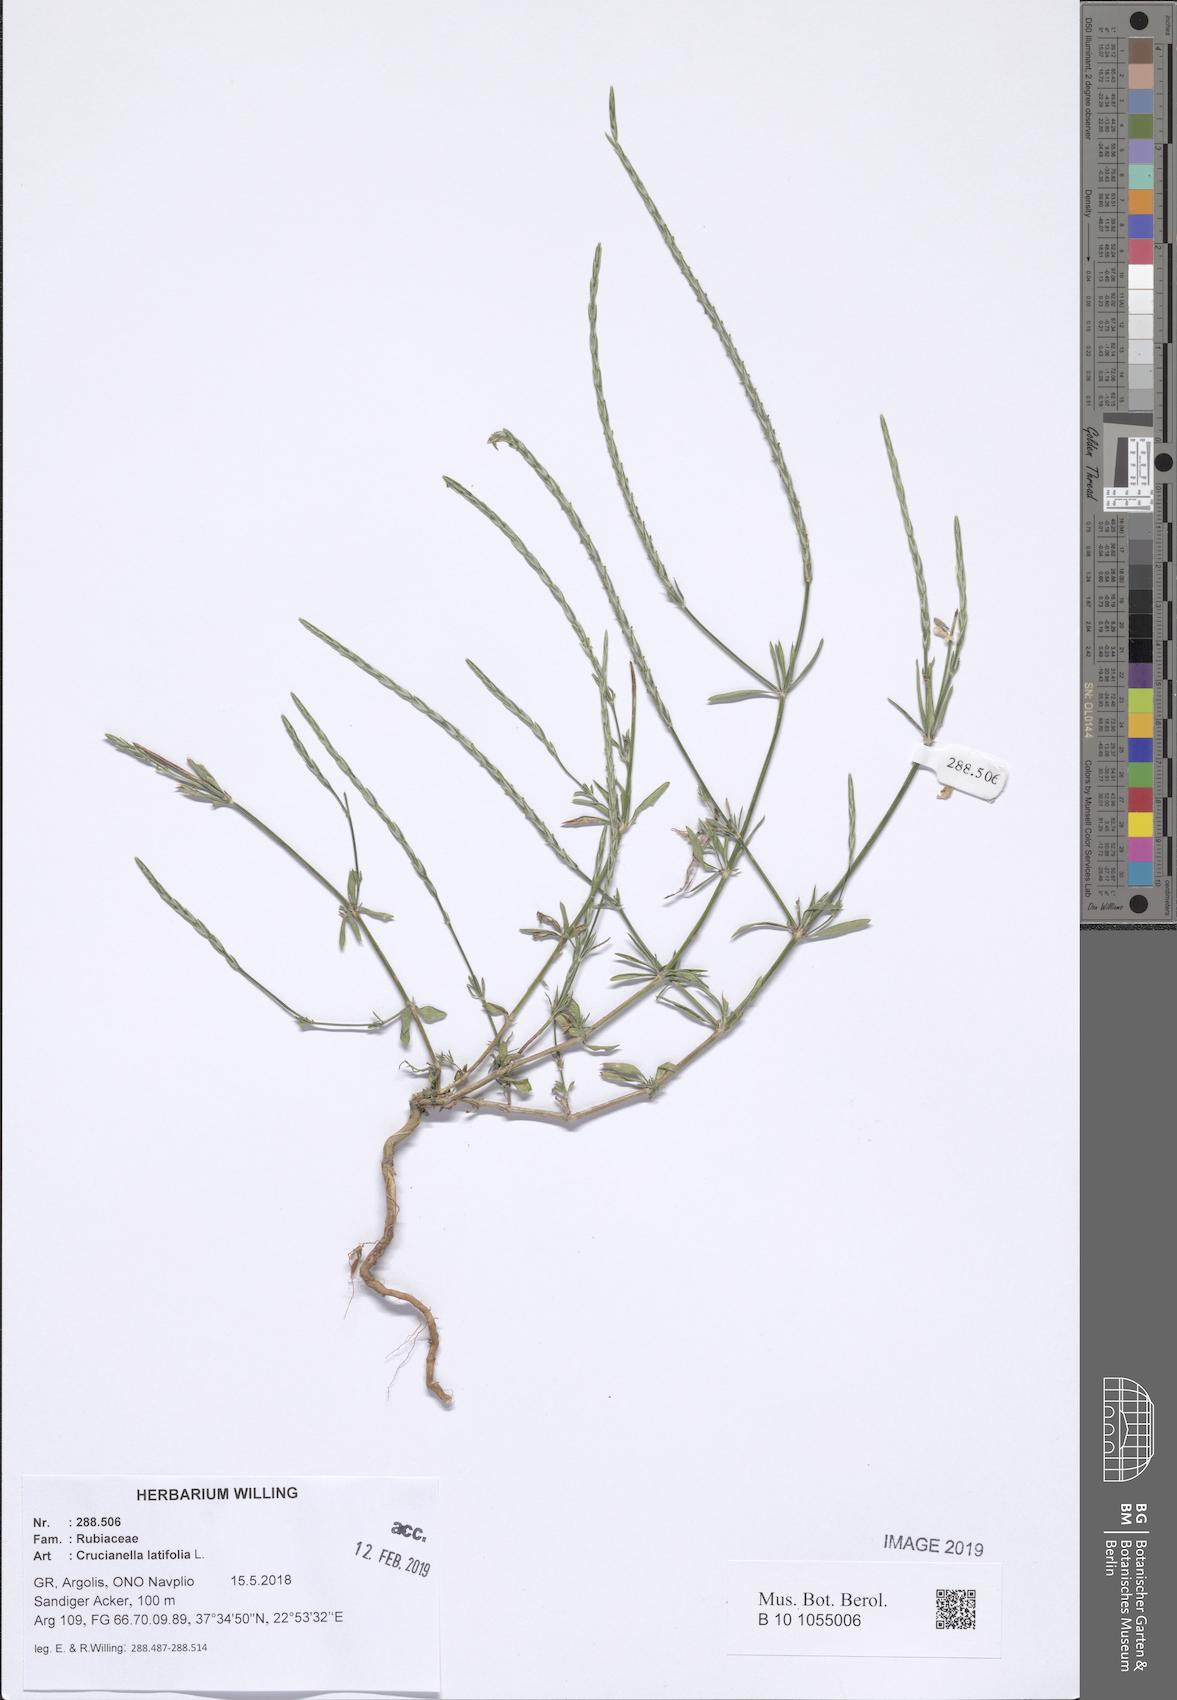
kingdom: Plantae
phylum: Tracheophyta
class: Magnoliopsida
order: Gentianales
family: Rubiaceae
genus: Crucianella
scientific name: Crucianella latifolia
